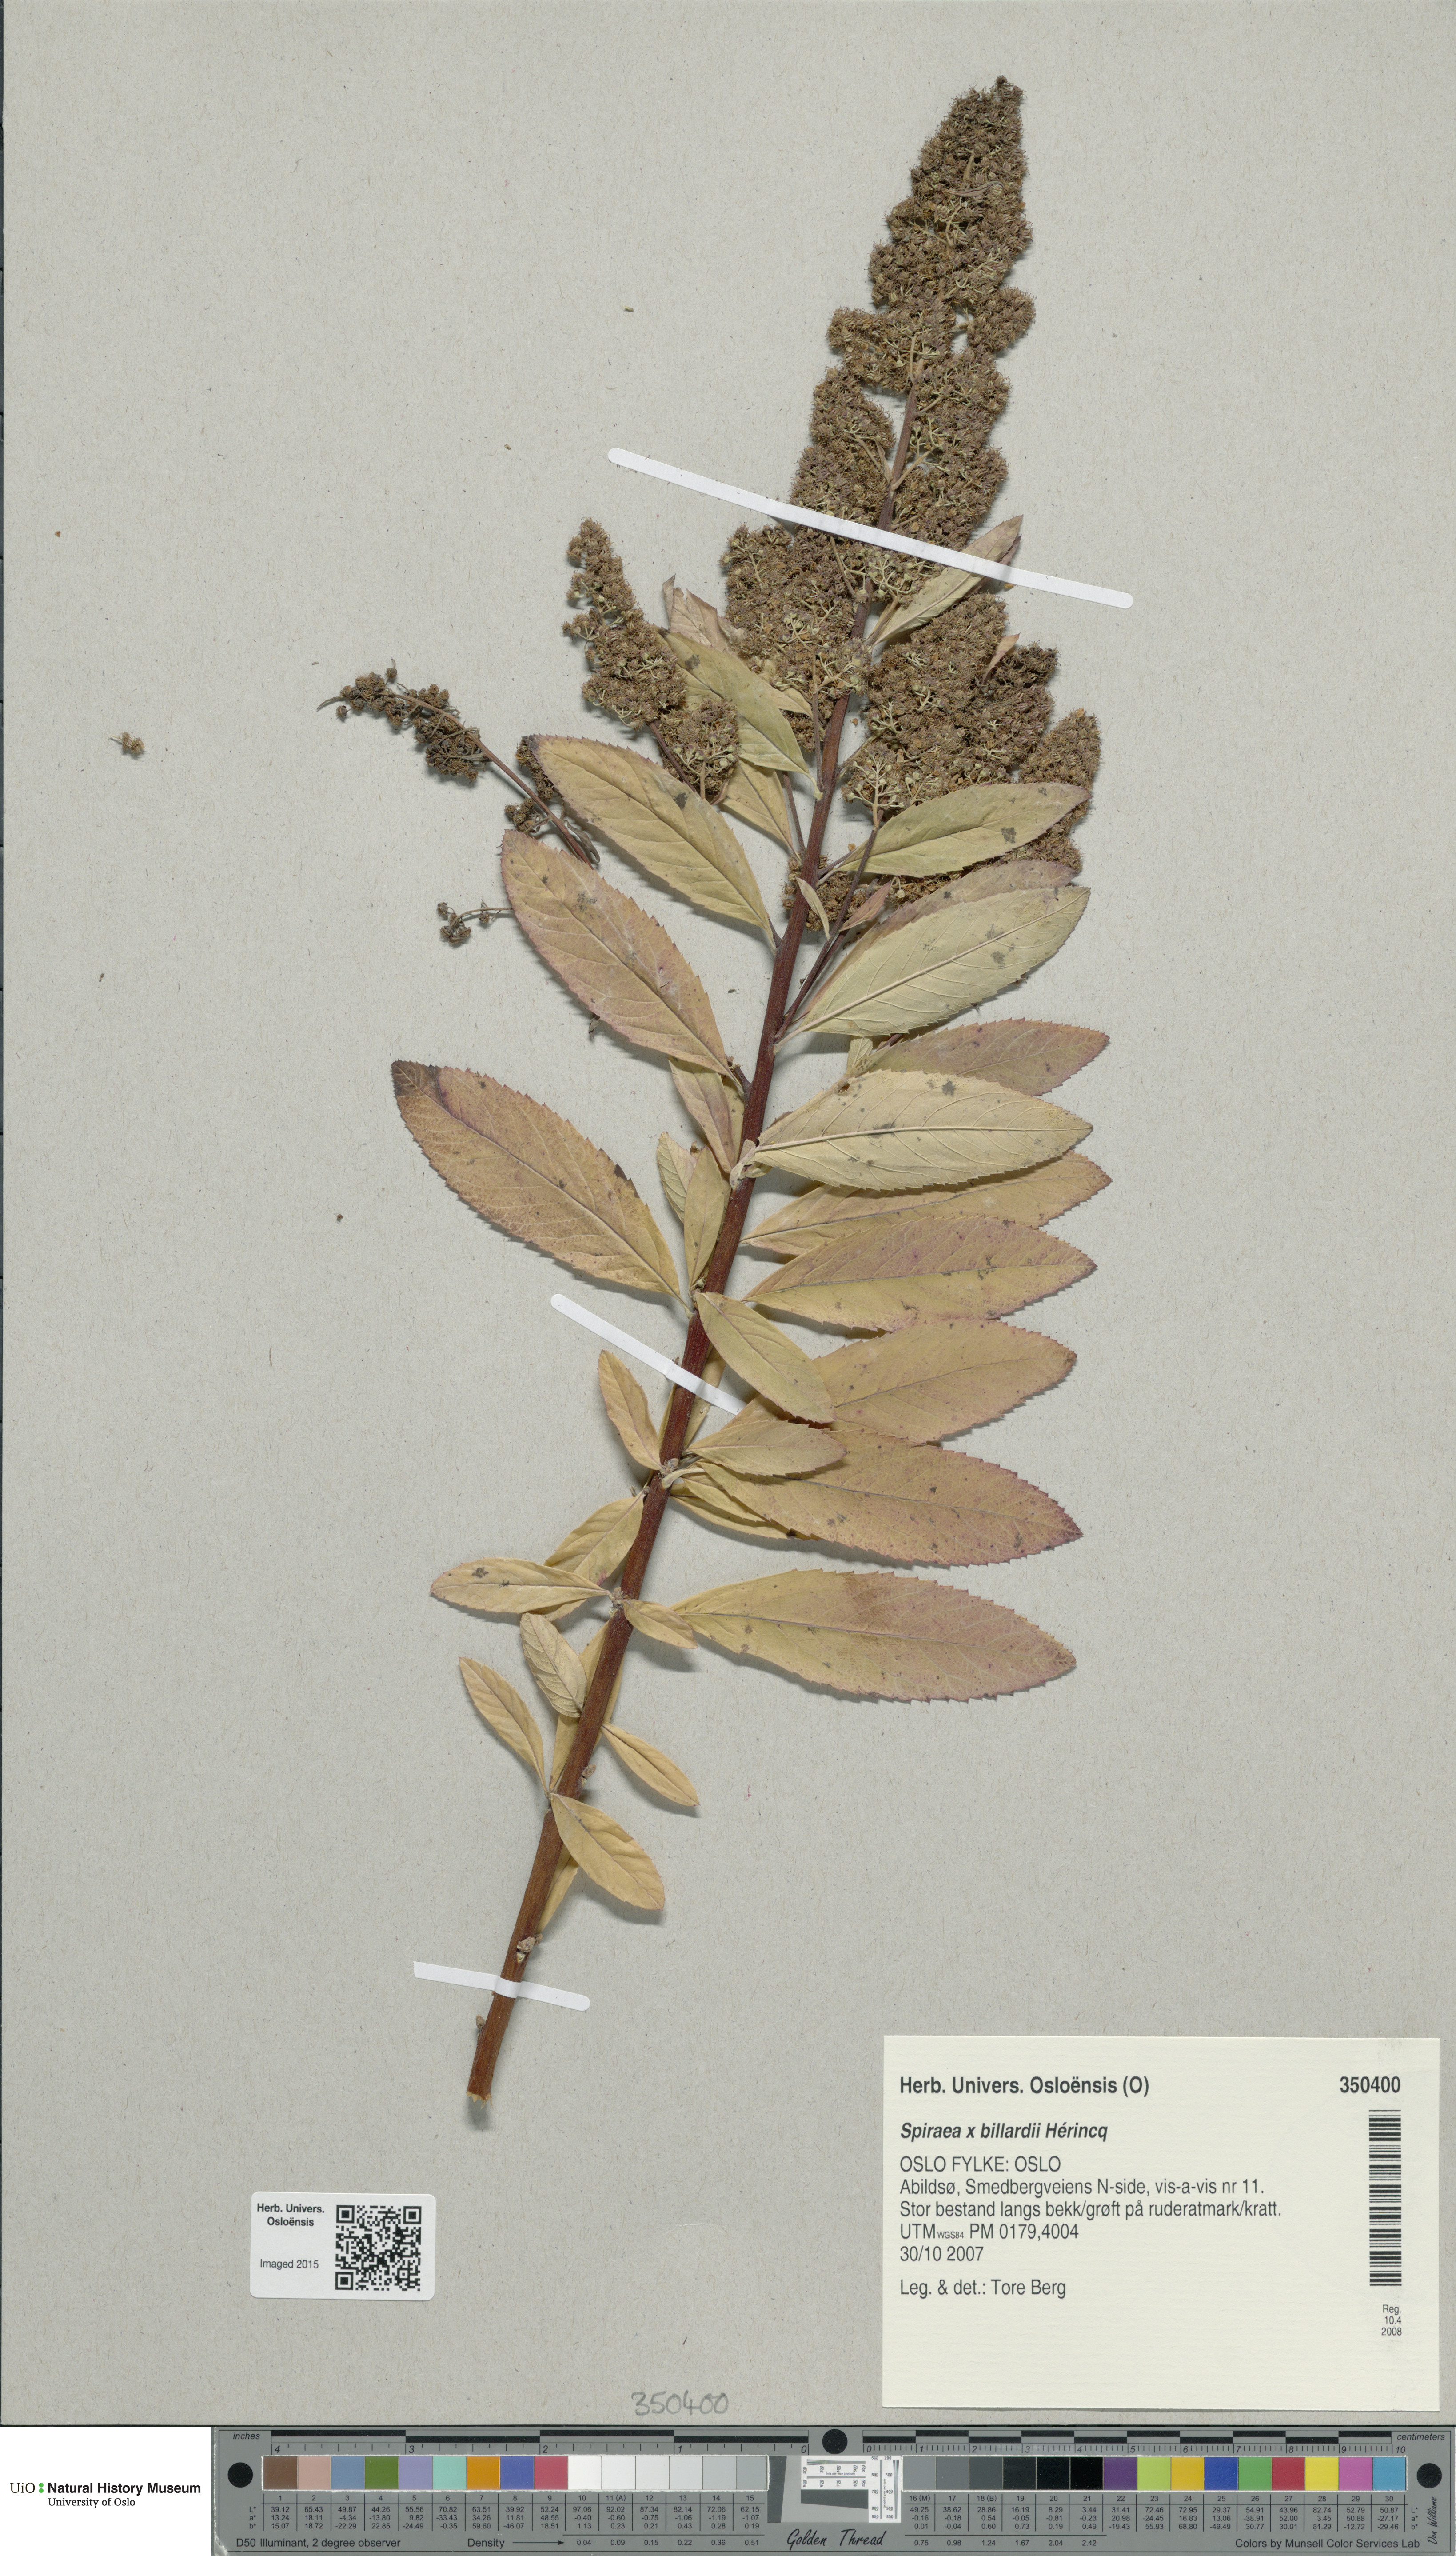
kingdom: Plantae
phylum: Tracheophyta
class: Magnoliopsida
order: Rosales
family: Rosaceae
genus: Spiraea
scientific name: Spiraea billardii
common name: Billard's bridewort
